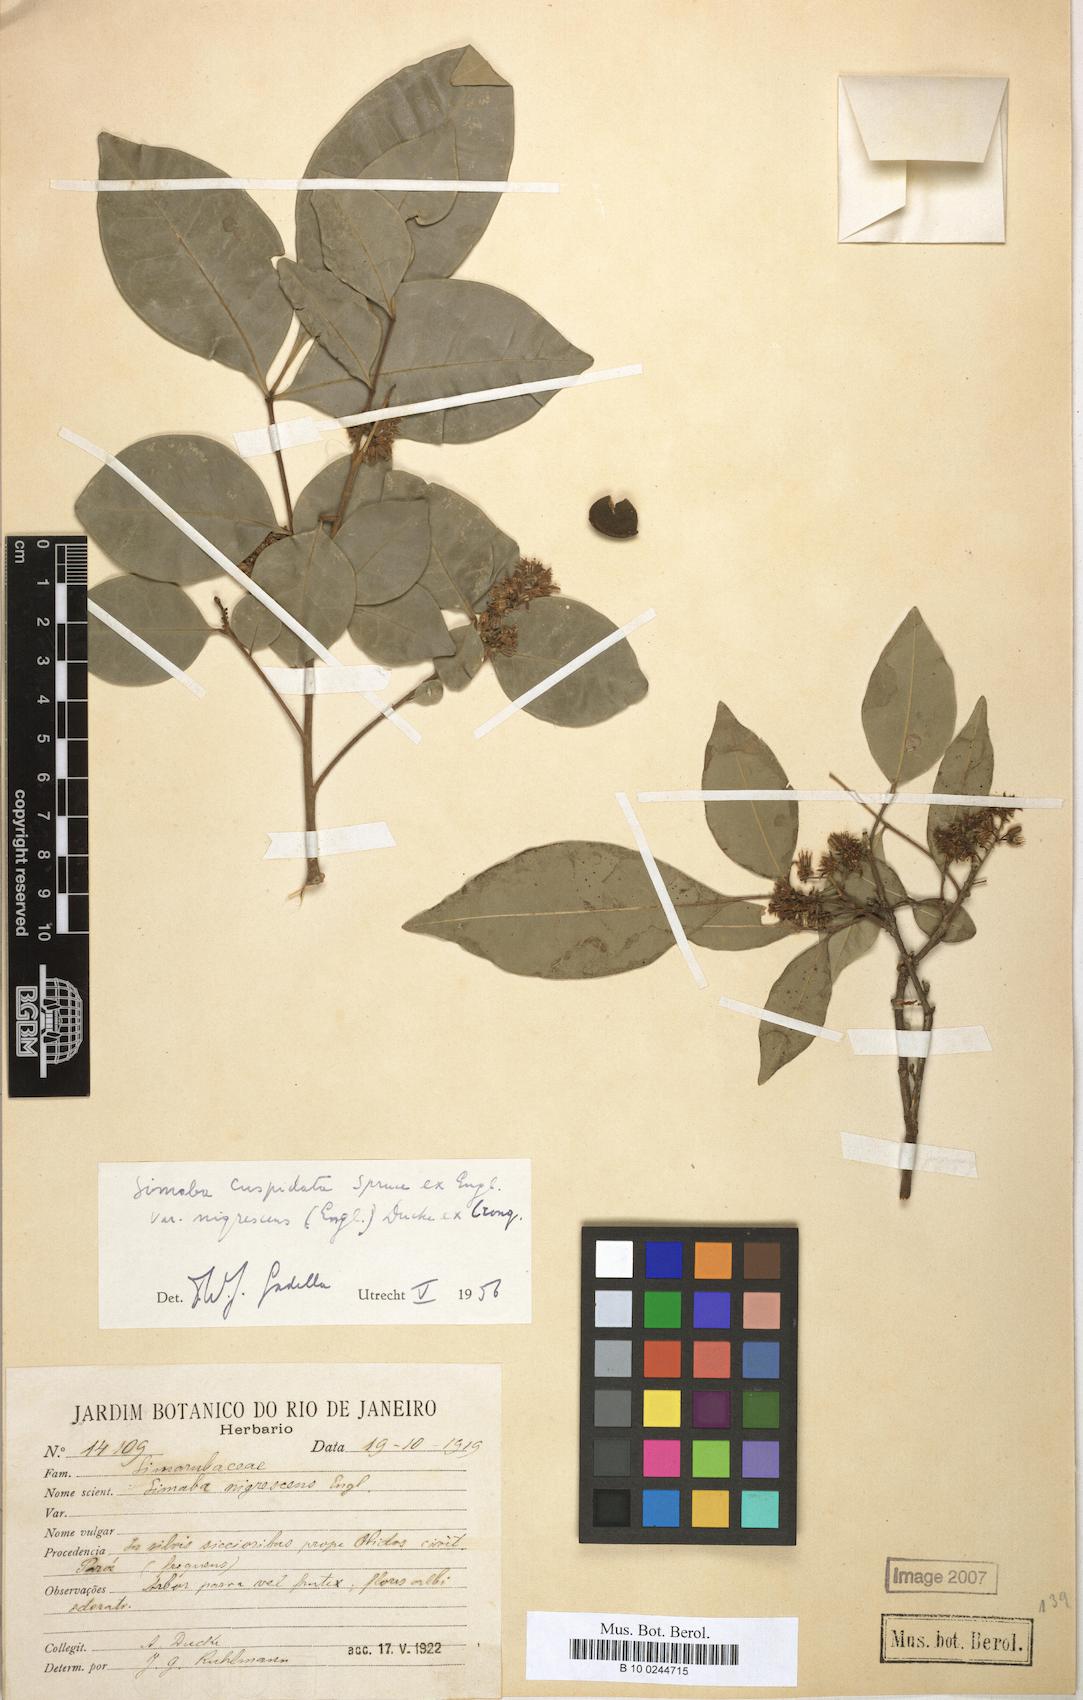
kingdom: Plantae
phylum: Tracheophyta
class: Magnoliopsida
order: Sapindales
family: Simaroubaceae
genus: Simaba
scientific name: Simaba guianensis
